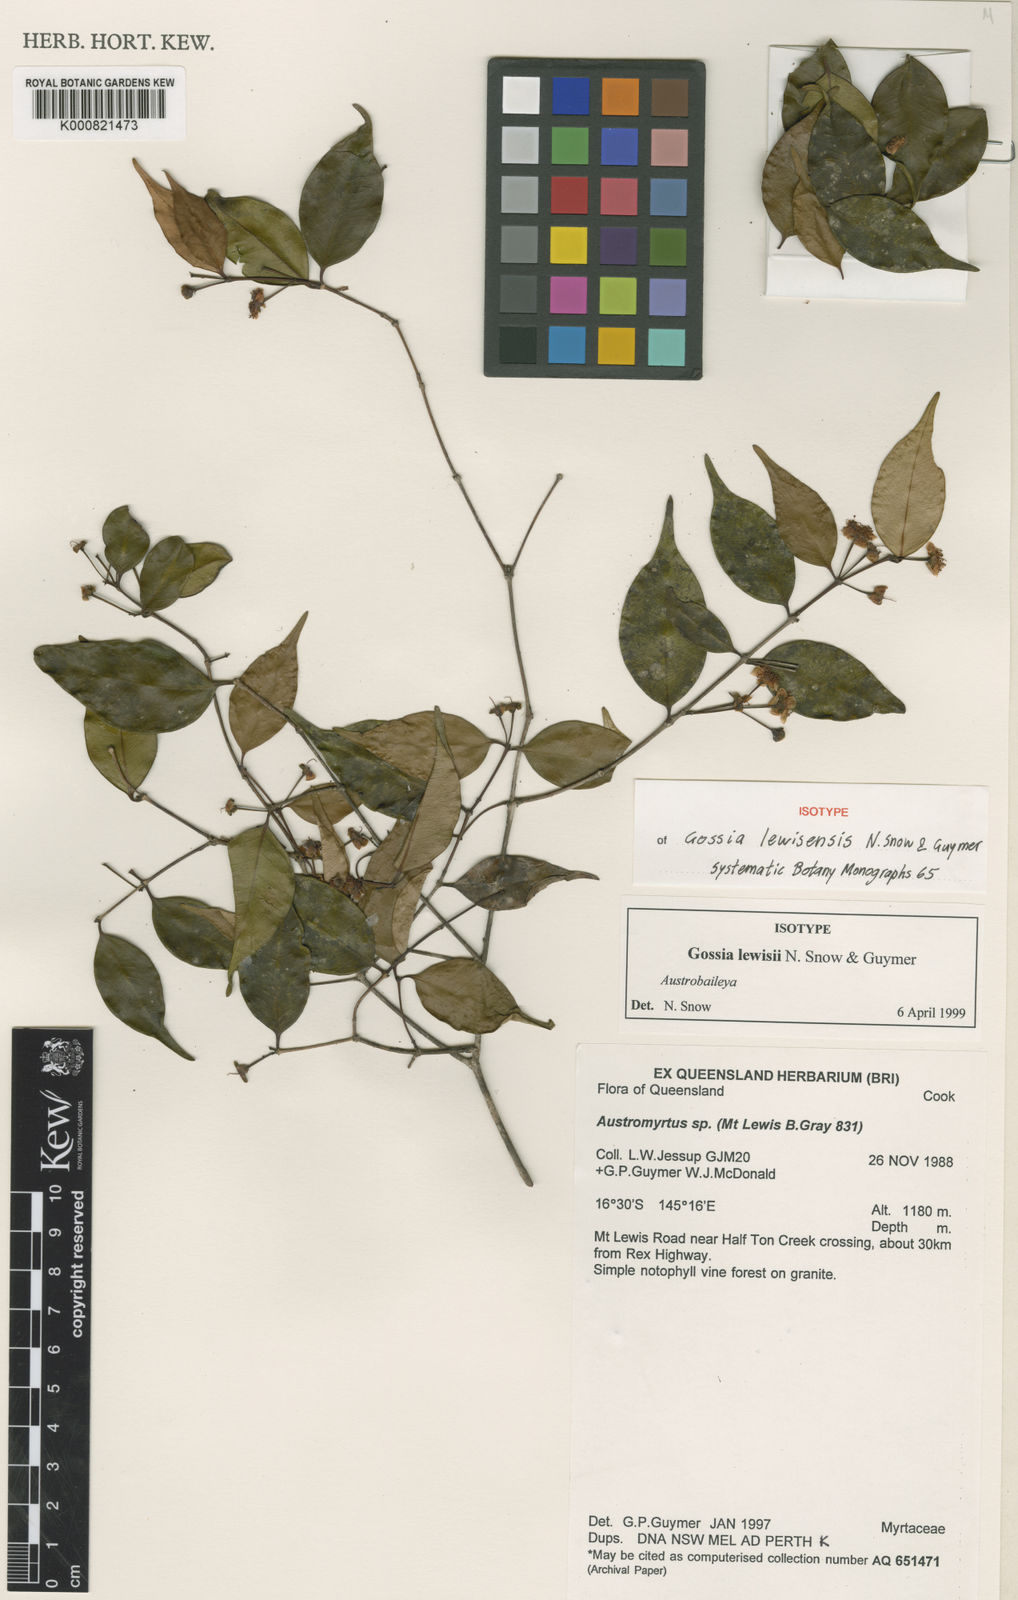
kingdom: Plantae
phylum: Tracheophyta
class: Magnoliopsida
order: Myrtales
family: Myrtaceae
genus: Gossia
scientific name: Gossia lewisensis
